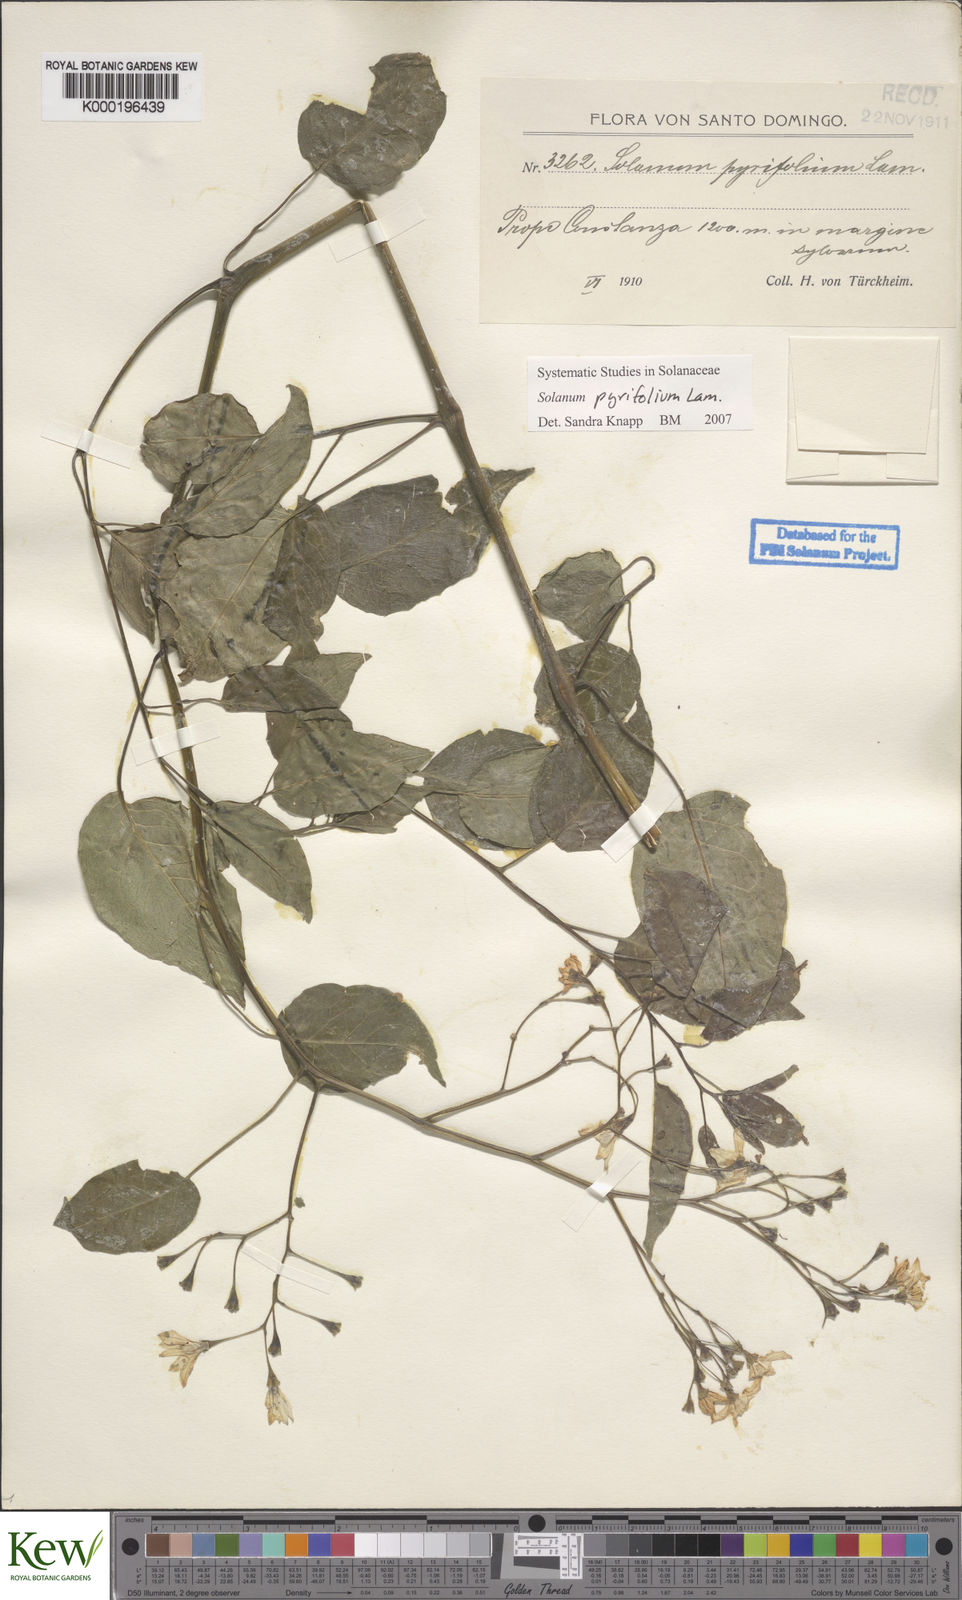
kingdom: Plantae
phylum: Tracheophyta
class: Magnoliopsida
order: Solanales
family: Solanaceae
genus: Solanum
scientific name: Solanum pyrifolium
